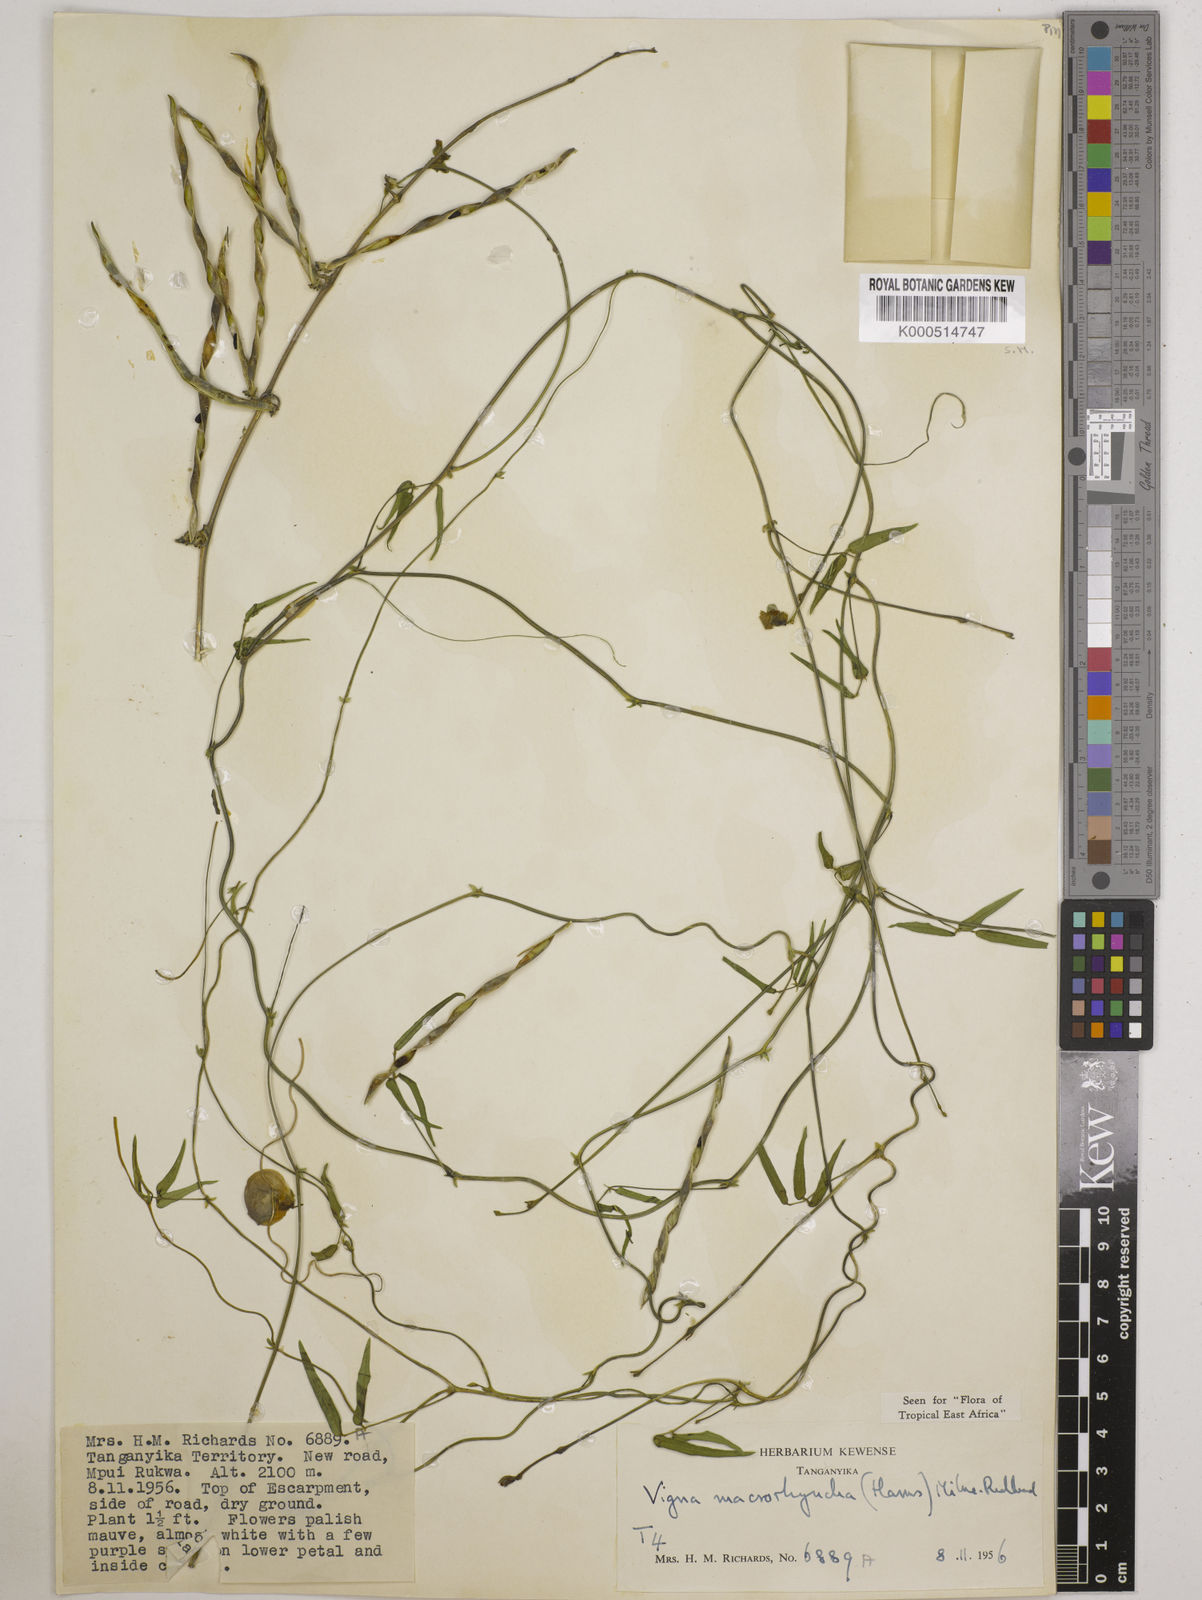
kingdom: Plantae
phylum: Tracheophyta
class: Magnoliopsida
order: Fabales
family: Fabaceae
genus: Wajira
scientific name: Wajira grahamiana
